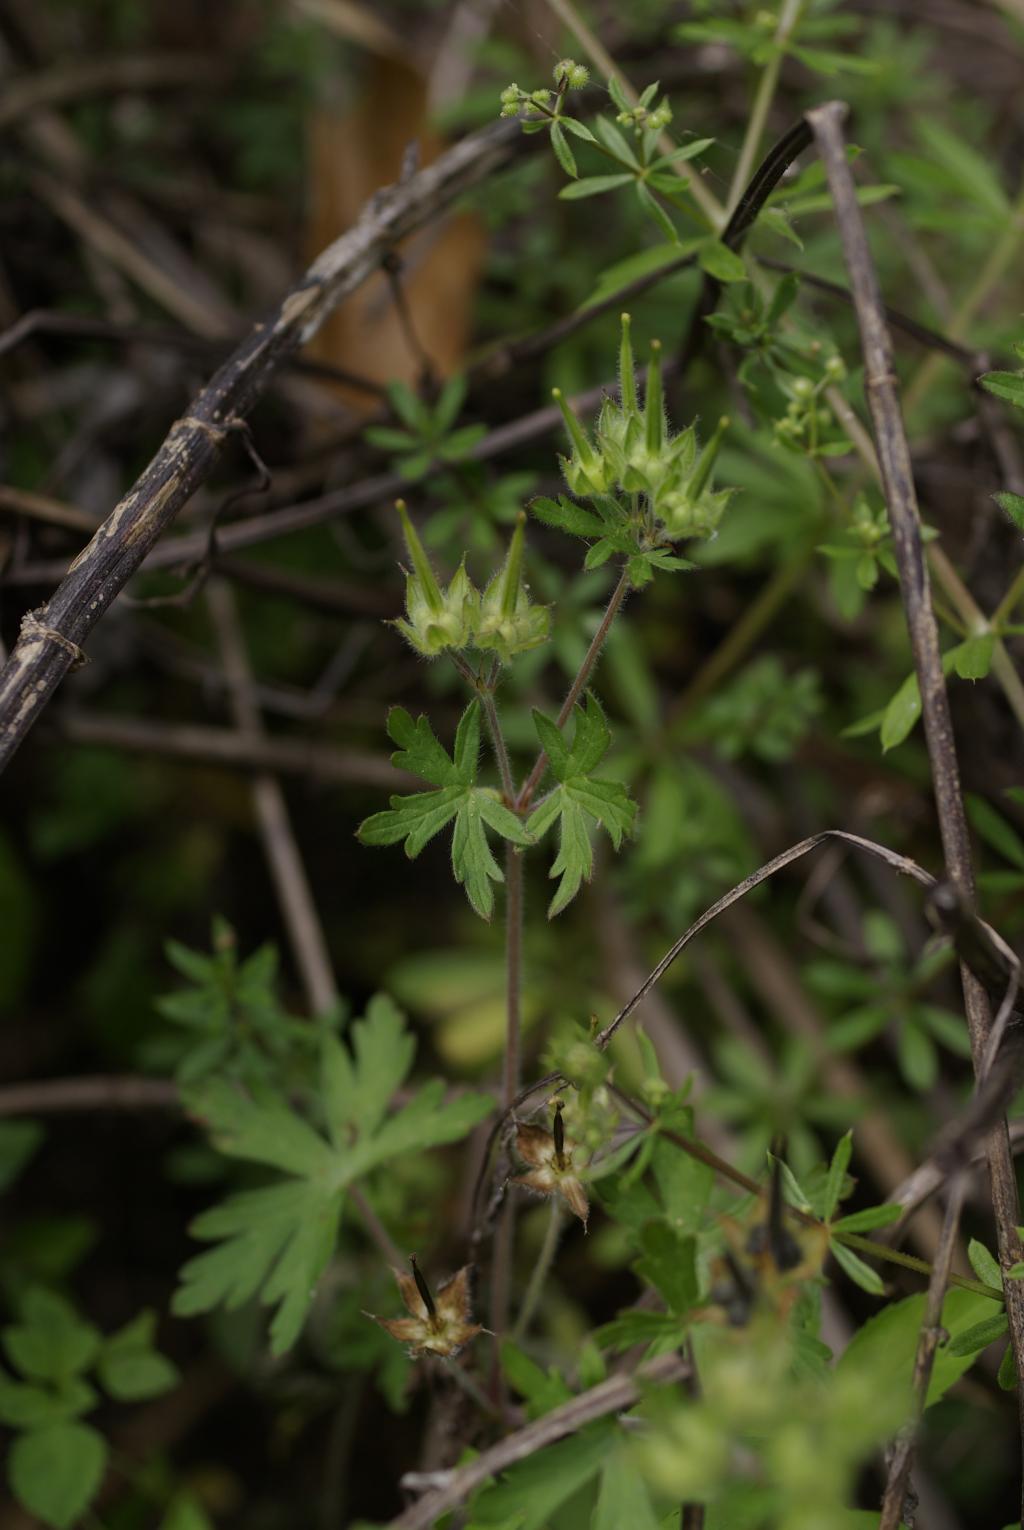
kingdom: Plantae
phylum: Tracheophyta
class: Magnoliopsida
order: Geraniales
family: Geraniaceae
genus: Geranium
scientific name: Geranium carolinianum
